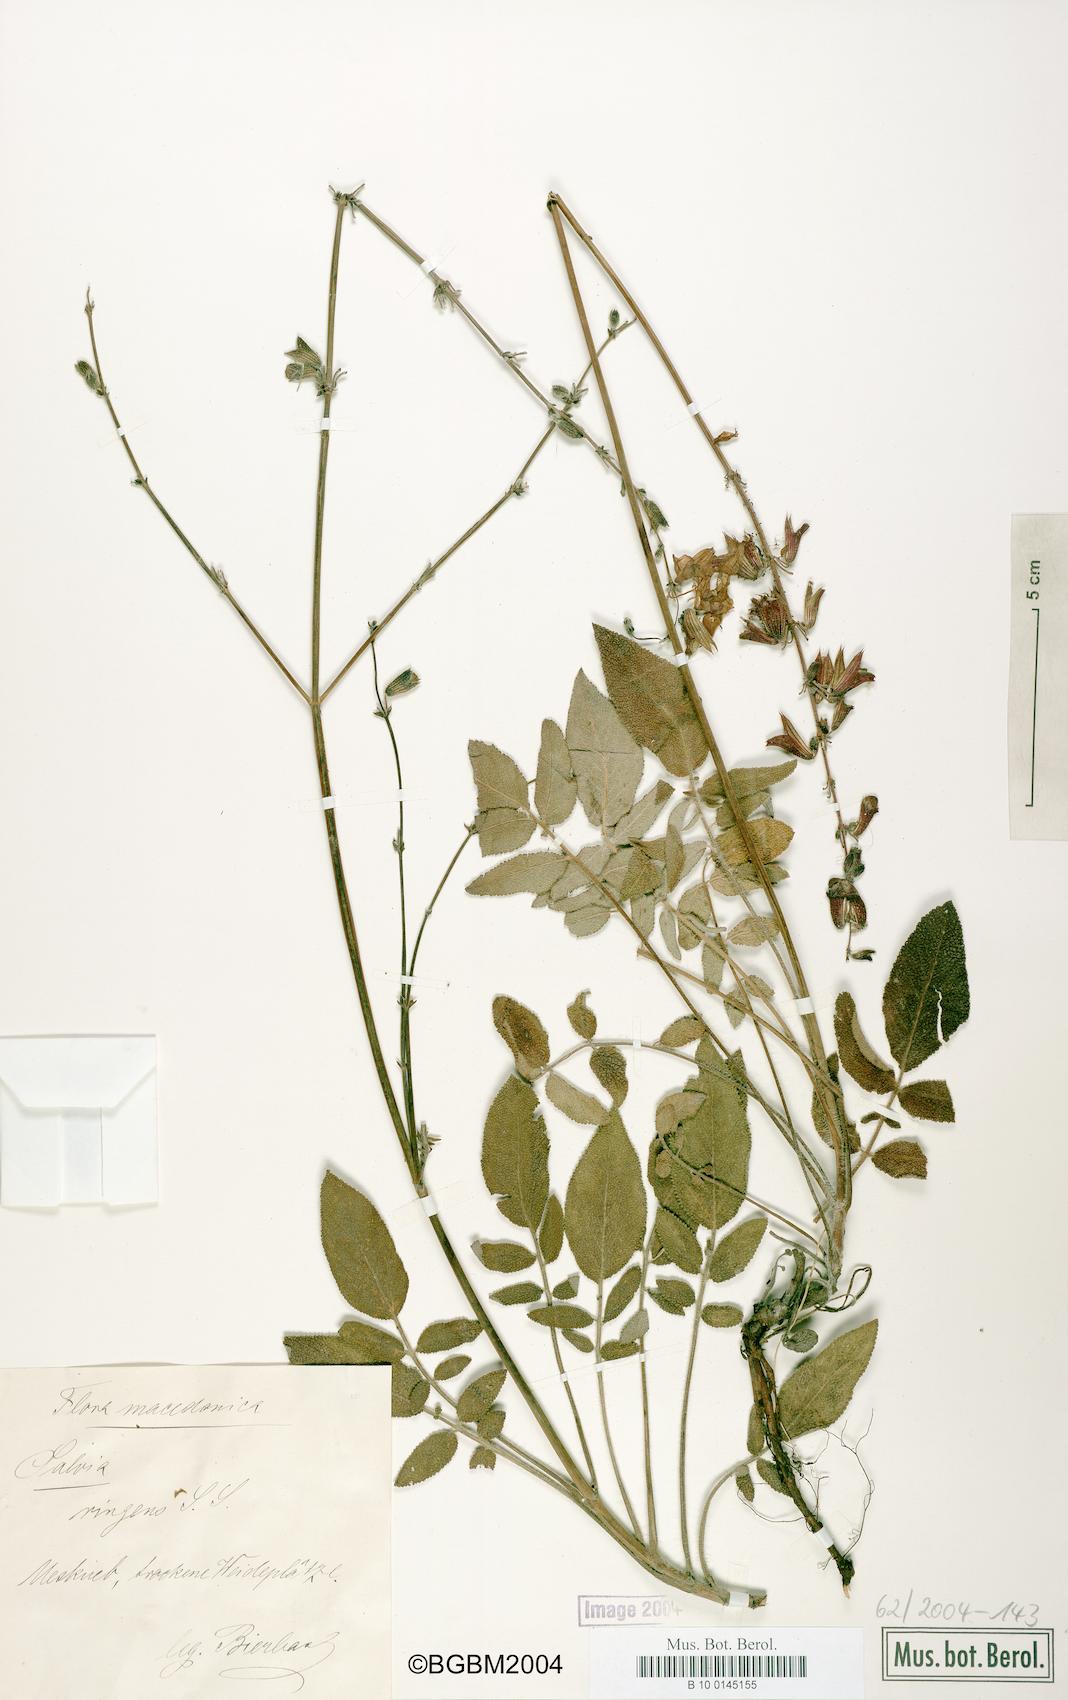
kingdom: Plantae
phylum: Tracheophyta
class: Magnoliopsida
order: Lamiales
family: Lamiaceae
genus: Salvia
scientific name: Salvia ringens
